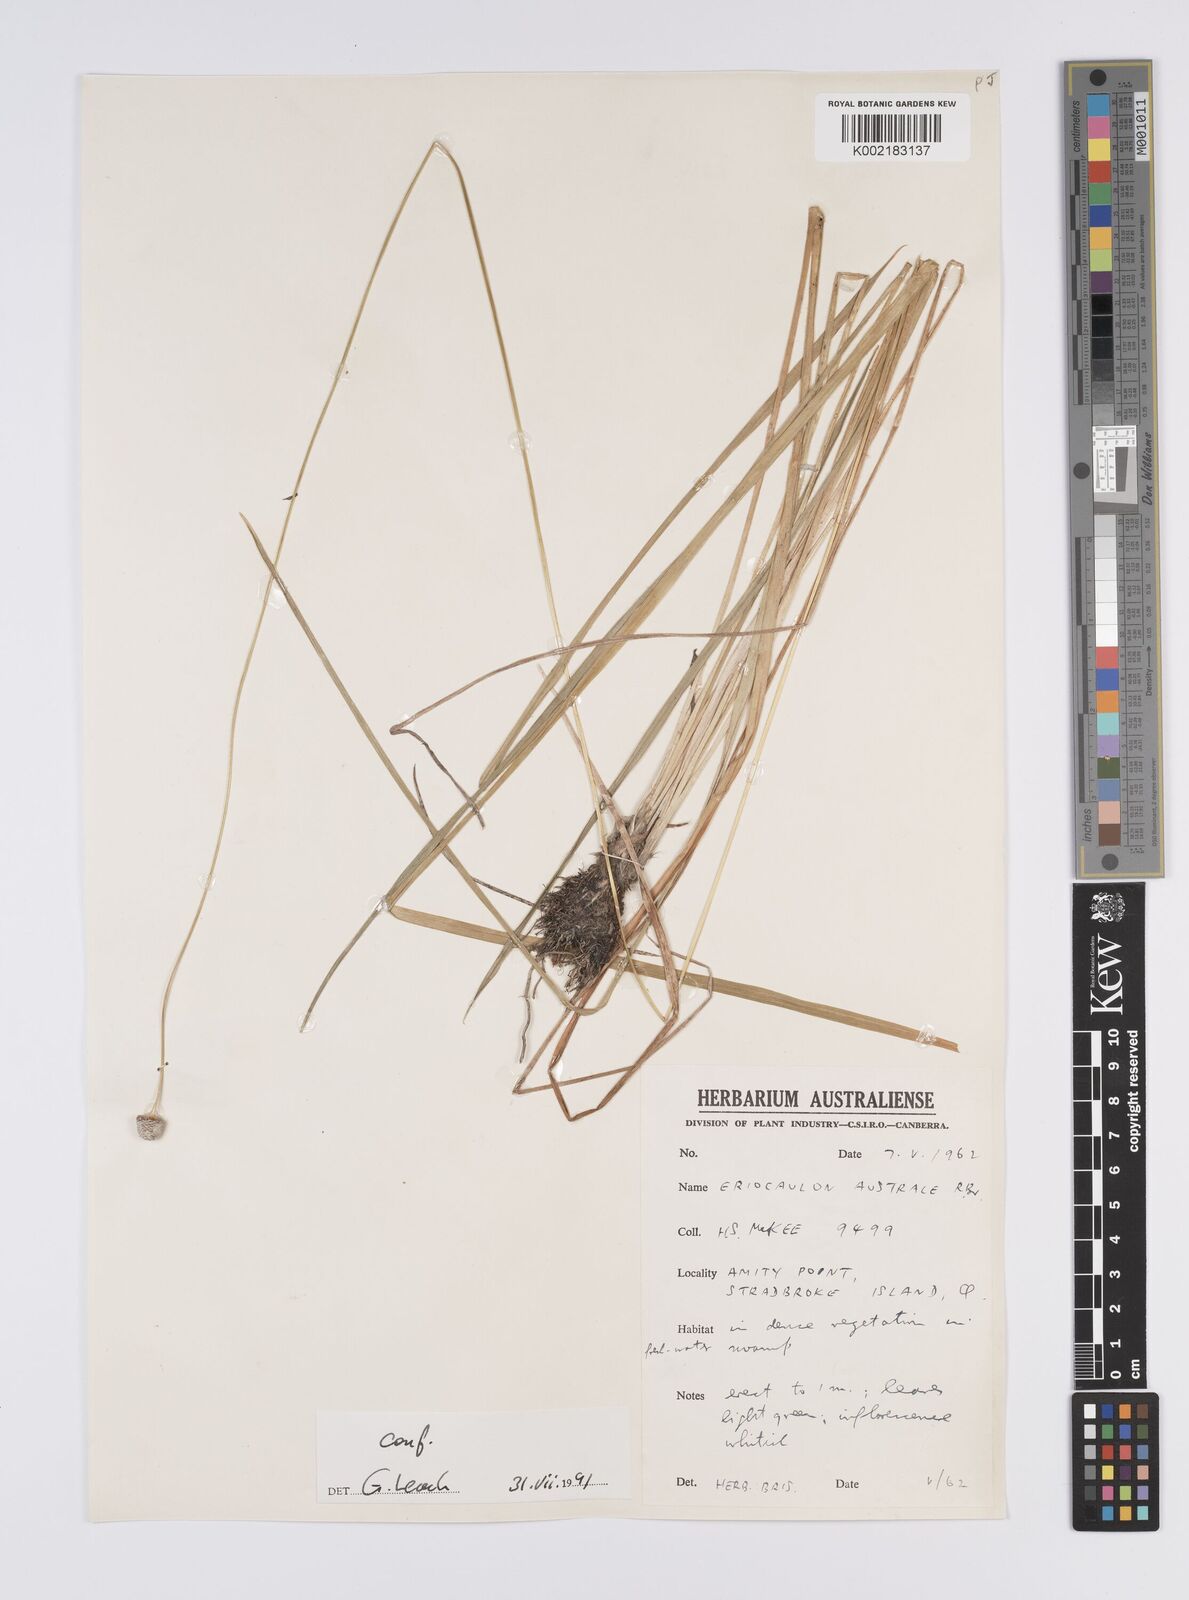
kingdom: Plantae
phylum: Tracheophyta
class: Liliopsida
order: Poales
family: Eriocaulaceae
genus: Eriocaulon
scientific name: Eriocaulon australe
